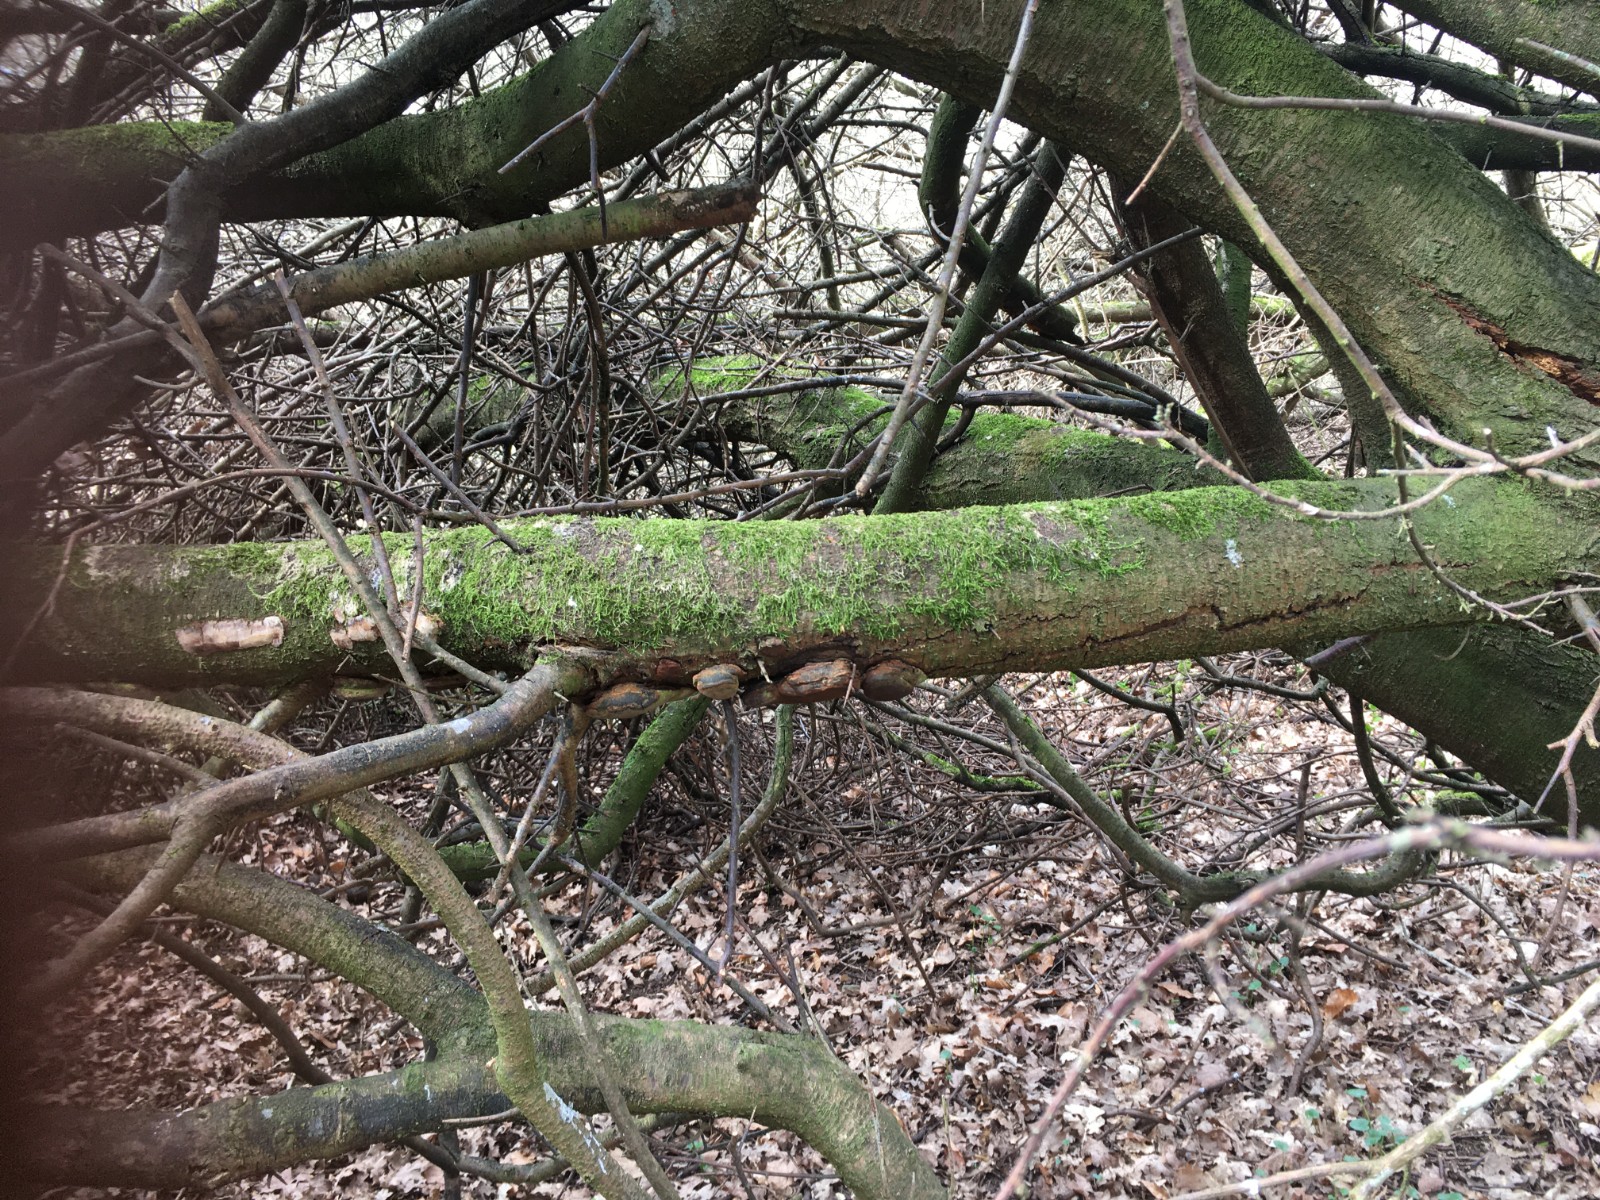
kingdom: Fungi
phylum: Basidiomycota
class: Agaricomycetes
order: Hymenochaetales
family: Hymenochaetaceae
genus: Phellinus
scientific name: Phellinus pomaceus
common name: blomme-ildporesvamp
